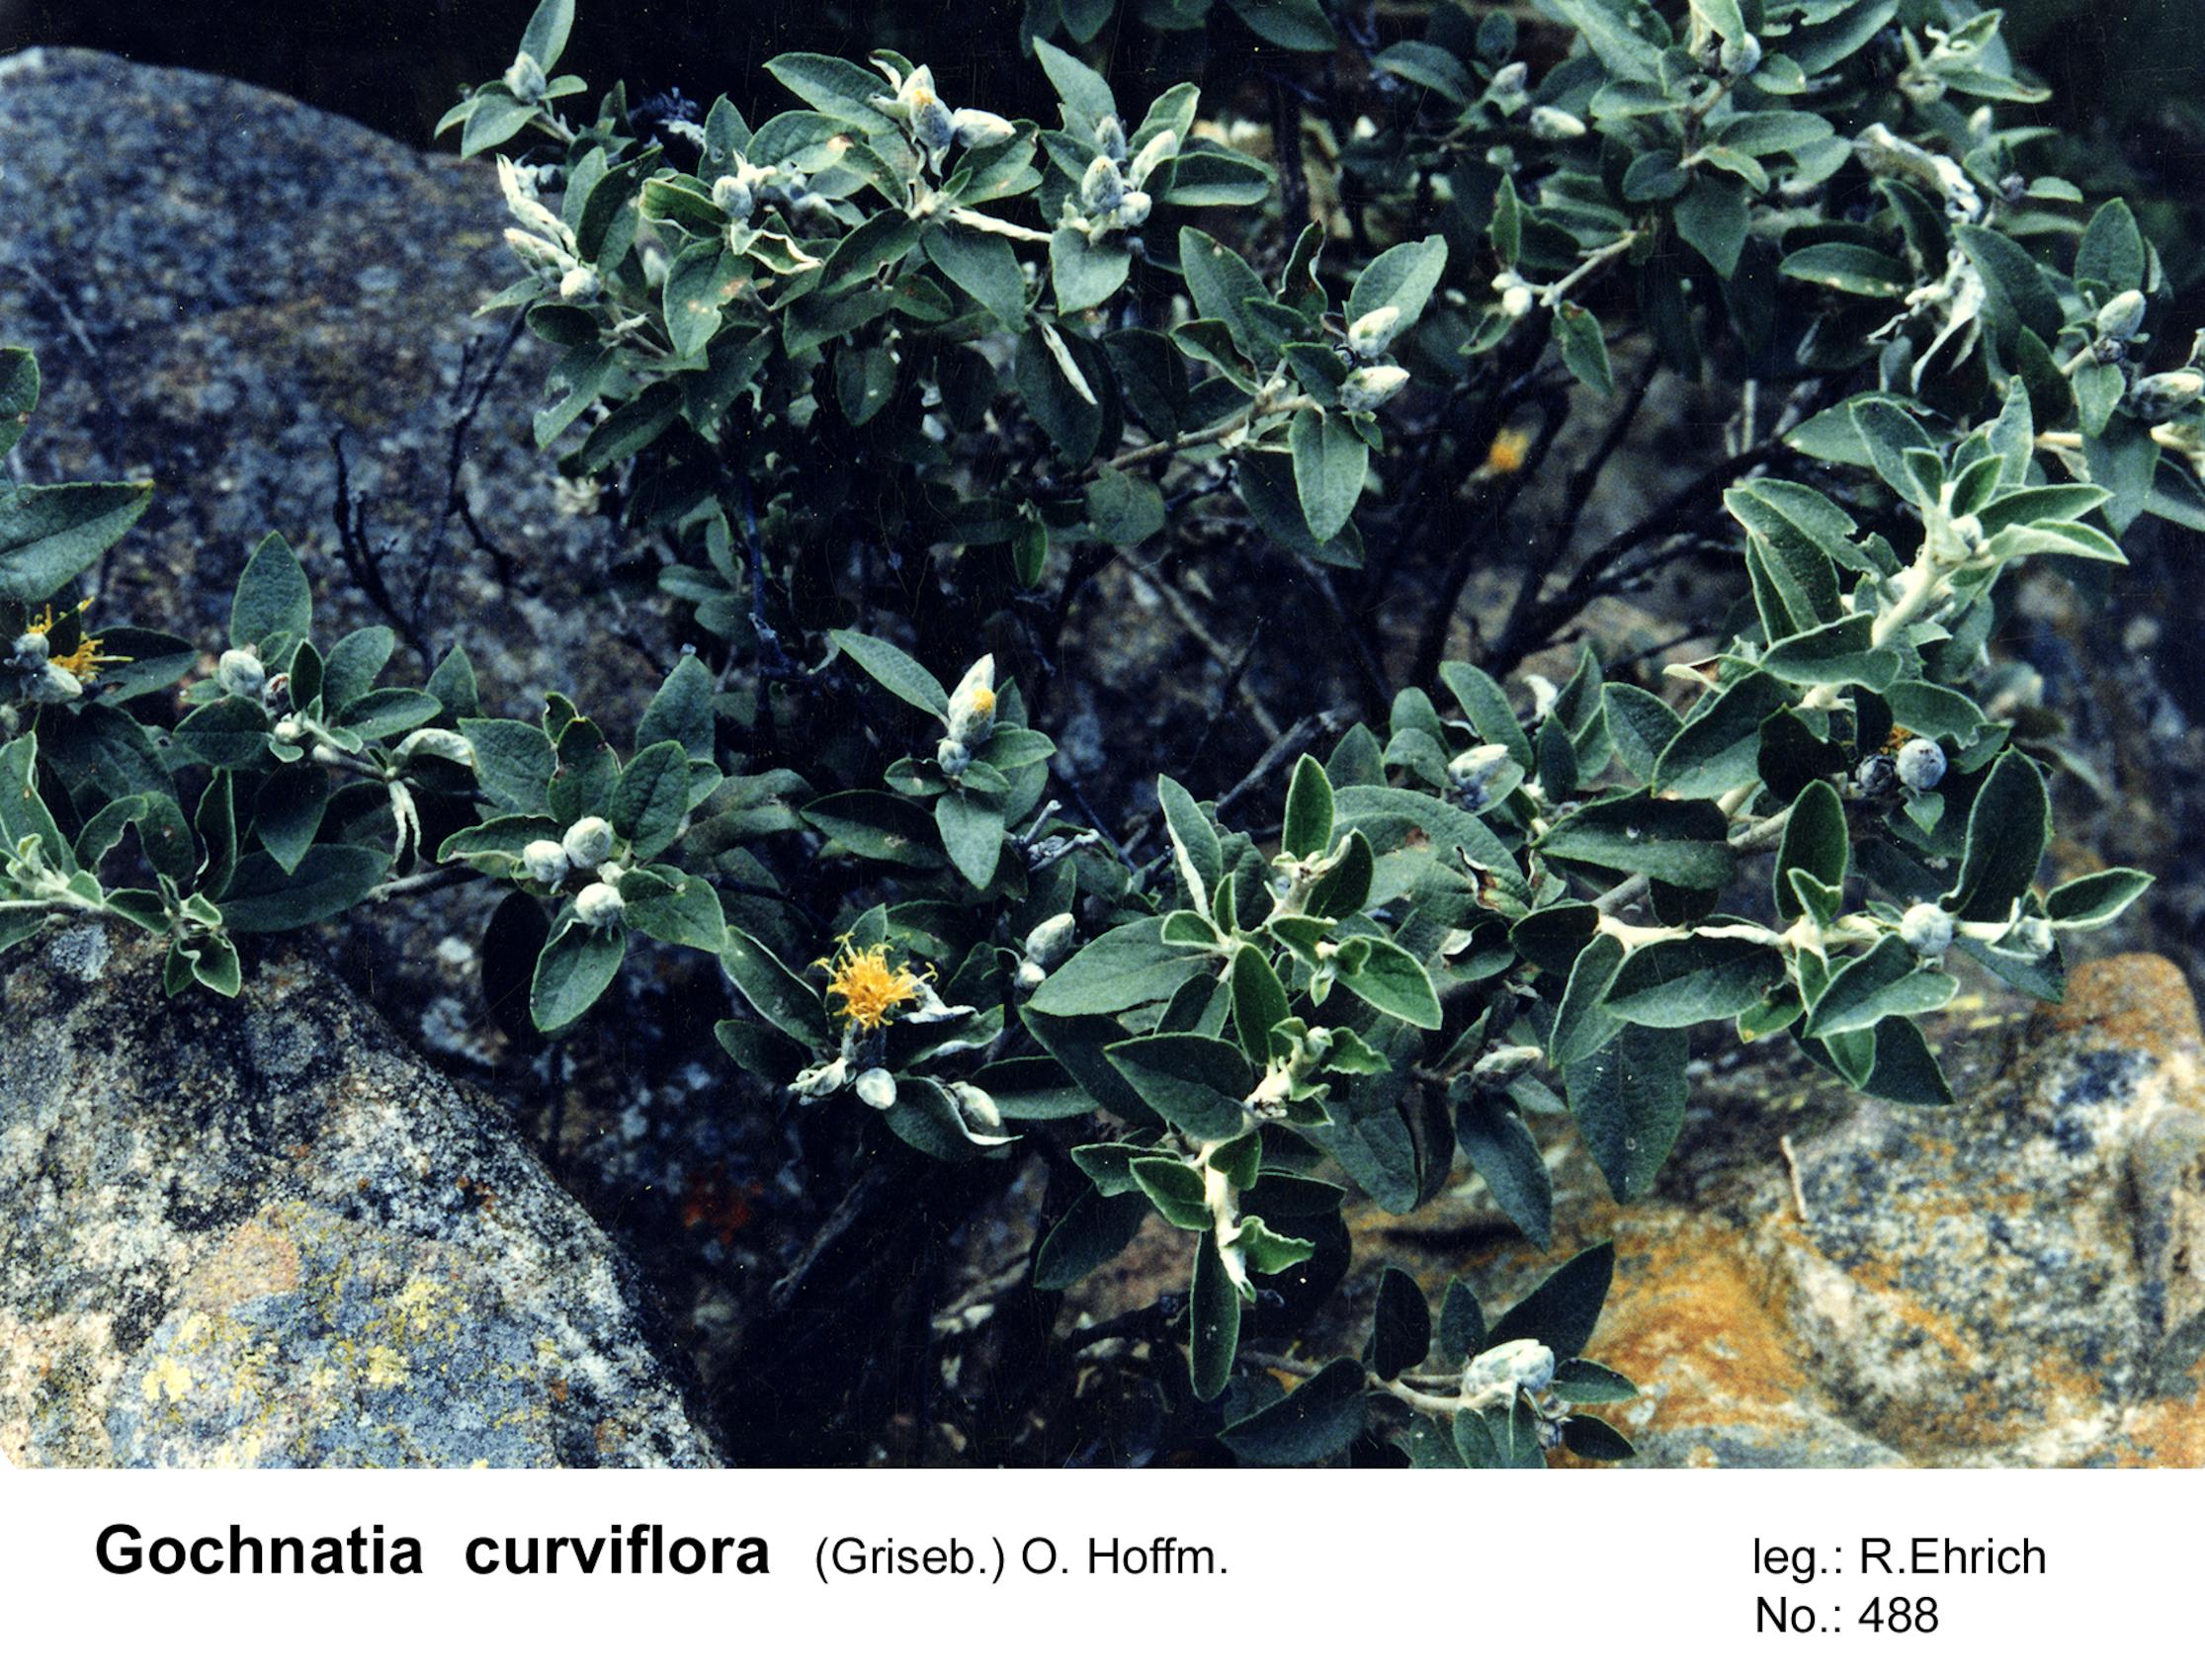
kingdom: Plantae
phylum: Tracheophyta
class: Magnoliopsida
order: Asterales
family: Asteraceae
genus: Gochnatia
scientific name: Gochnatia curviflora
